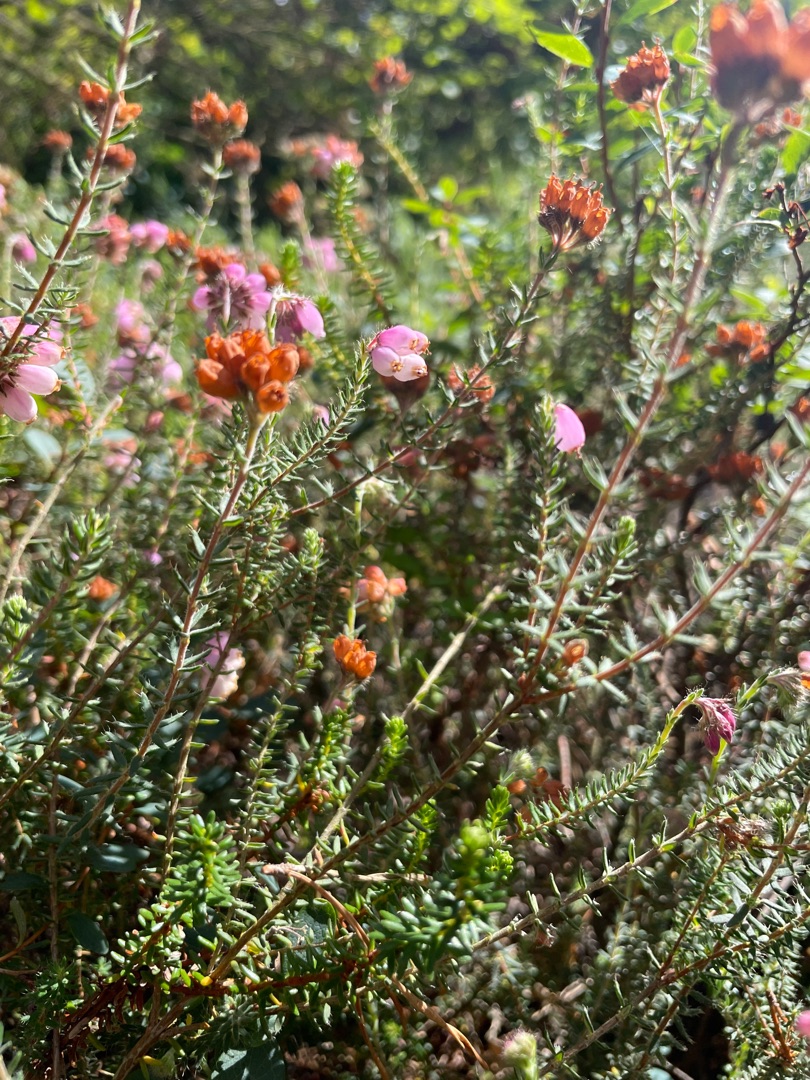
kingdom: Plantae
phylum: Tracheophyta
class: Magnoliopsida
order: Ericales
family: Ericaceae
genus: Erica
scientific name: Erica tetralix
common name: Klokkelyng
